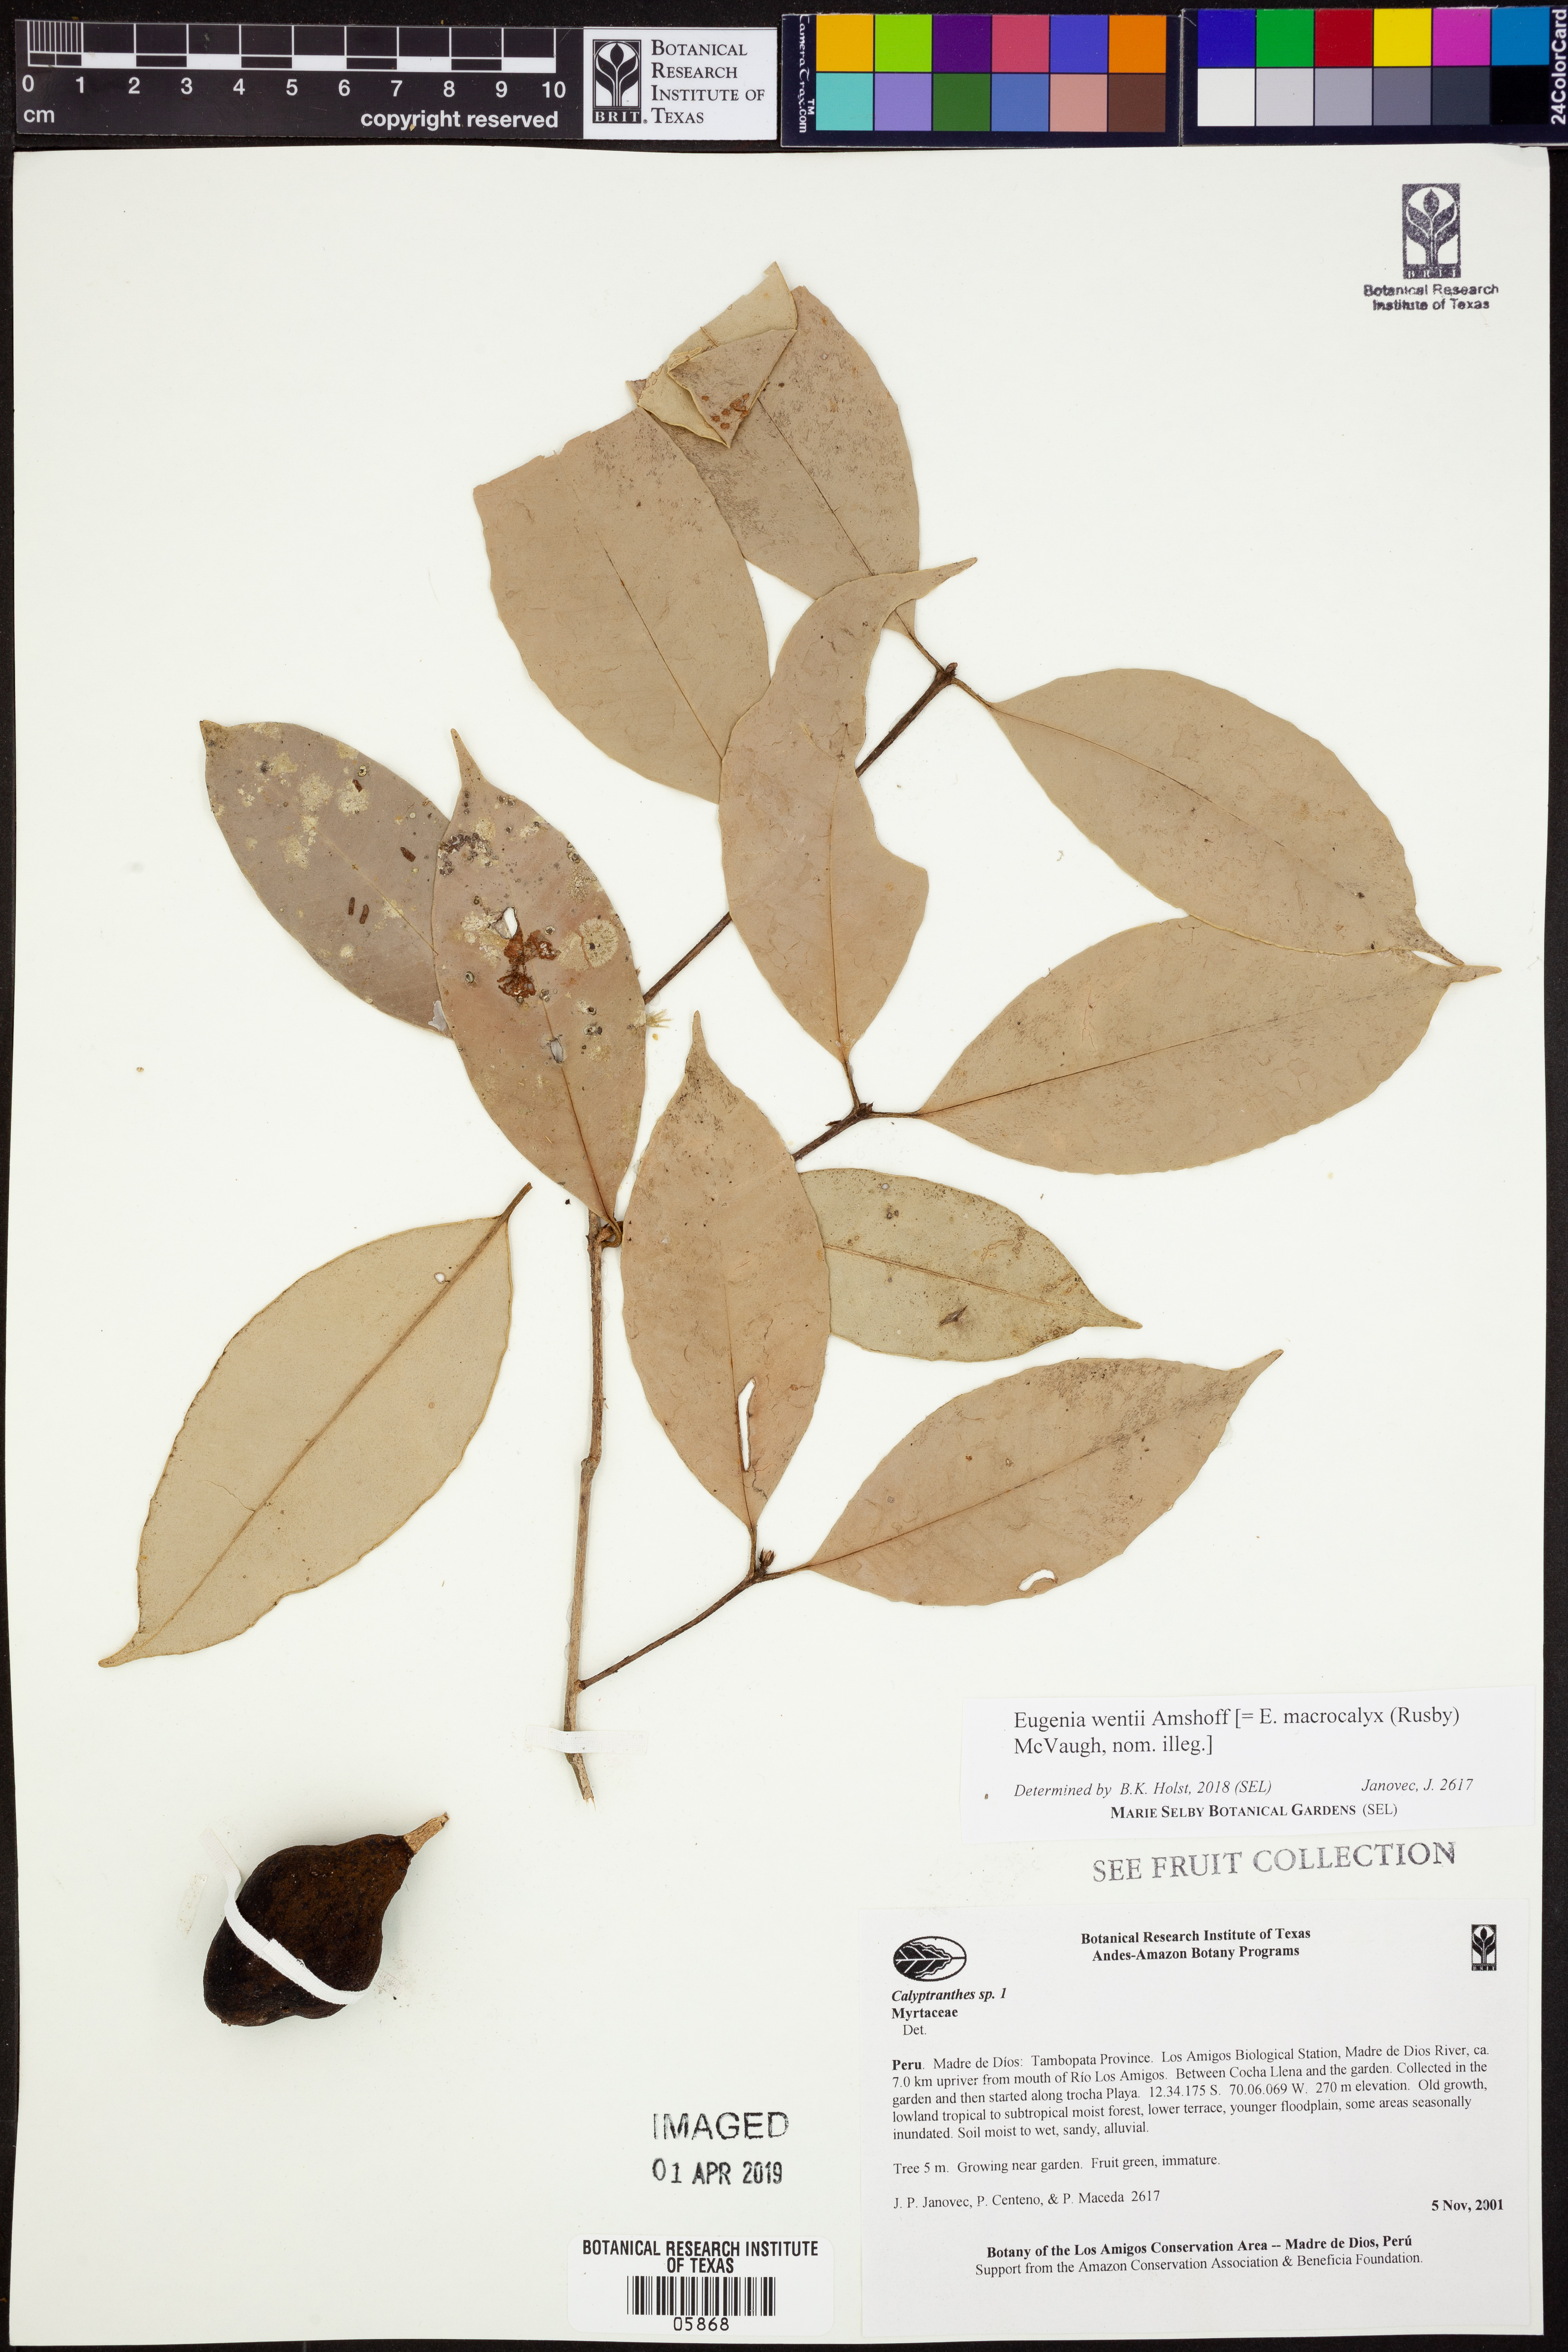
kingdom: Plantae
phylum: Tracheophyta
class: Magnoliopsida
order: Myrtales
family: Myrtaceae
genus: Eugenia
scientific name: Eugenia wentii
